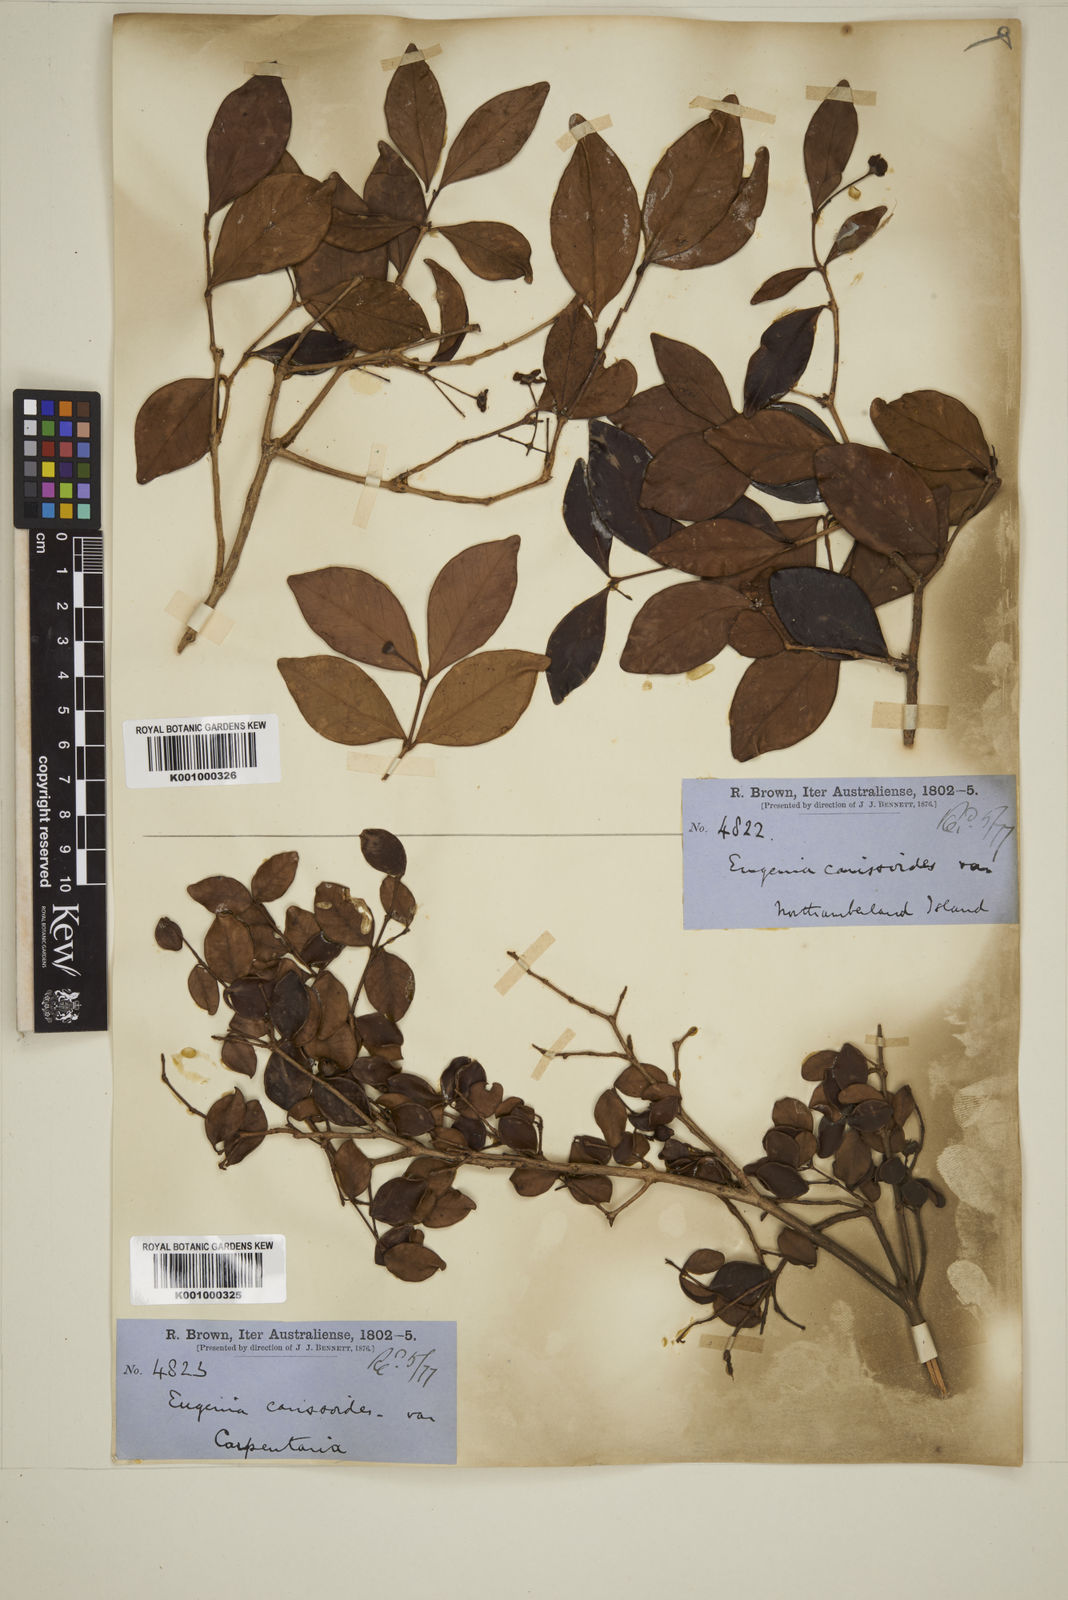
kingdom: Plantae
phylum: Tracheophyta
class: Magnoliopsida
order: Myrtales
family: Myrtaceae
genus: Eugenia
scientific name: Eugenia reinwardtiana
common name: Cedar bay-cherry
